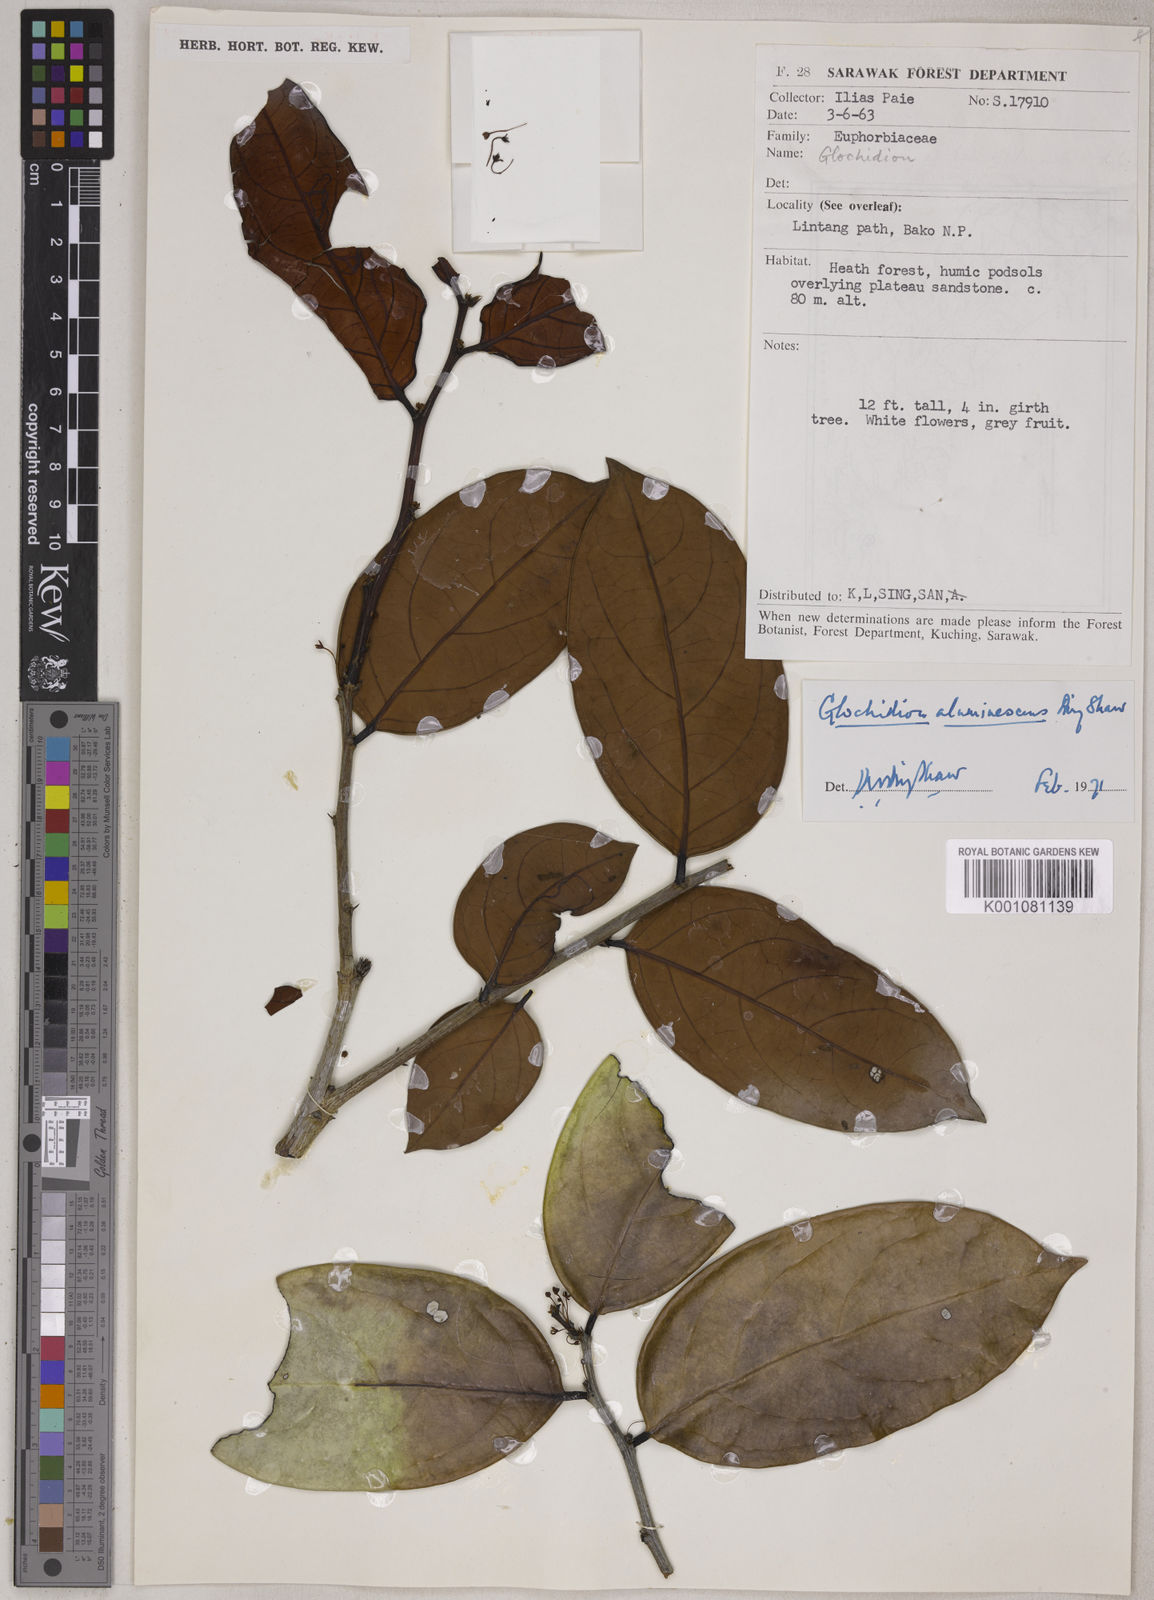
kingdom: Plantae
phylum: Tracheophyta
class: Magnoliopsida
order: Malpighiales
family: Phyllanthaceae
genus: Glochidion
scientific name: Glochidion aluminescens
